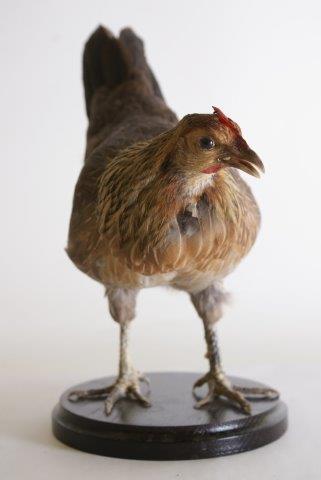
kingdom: Animalia
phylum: Chordata
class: Aves
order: Galliformes
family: Phasianidae
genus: Gallus
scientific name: Gallus gallus
